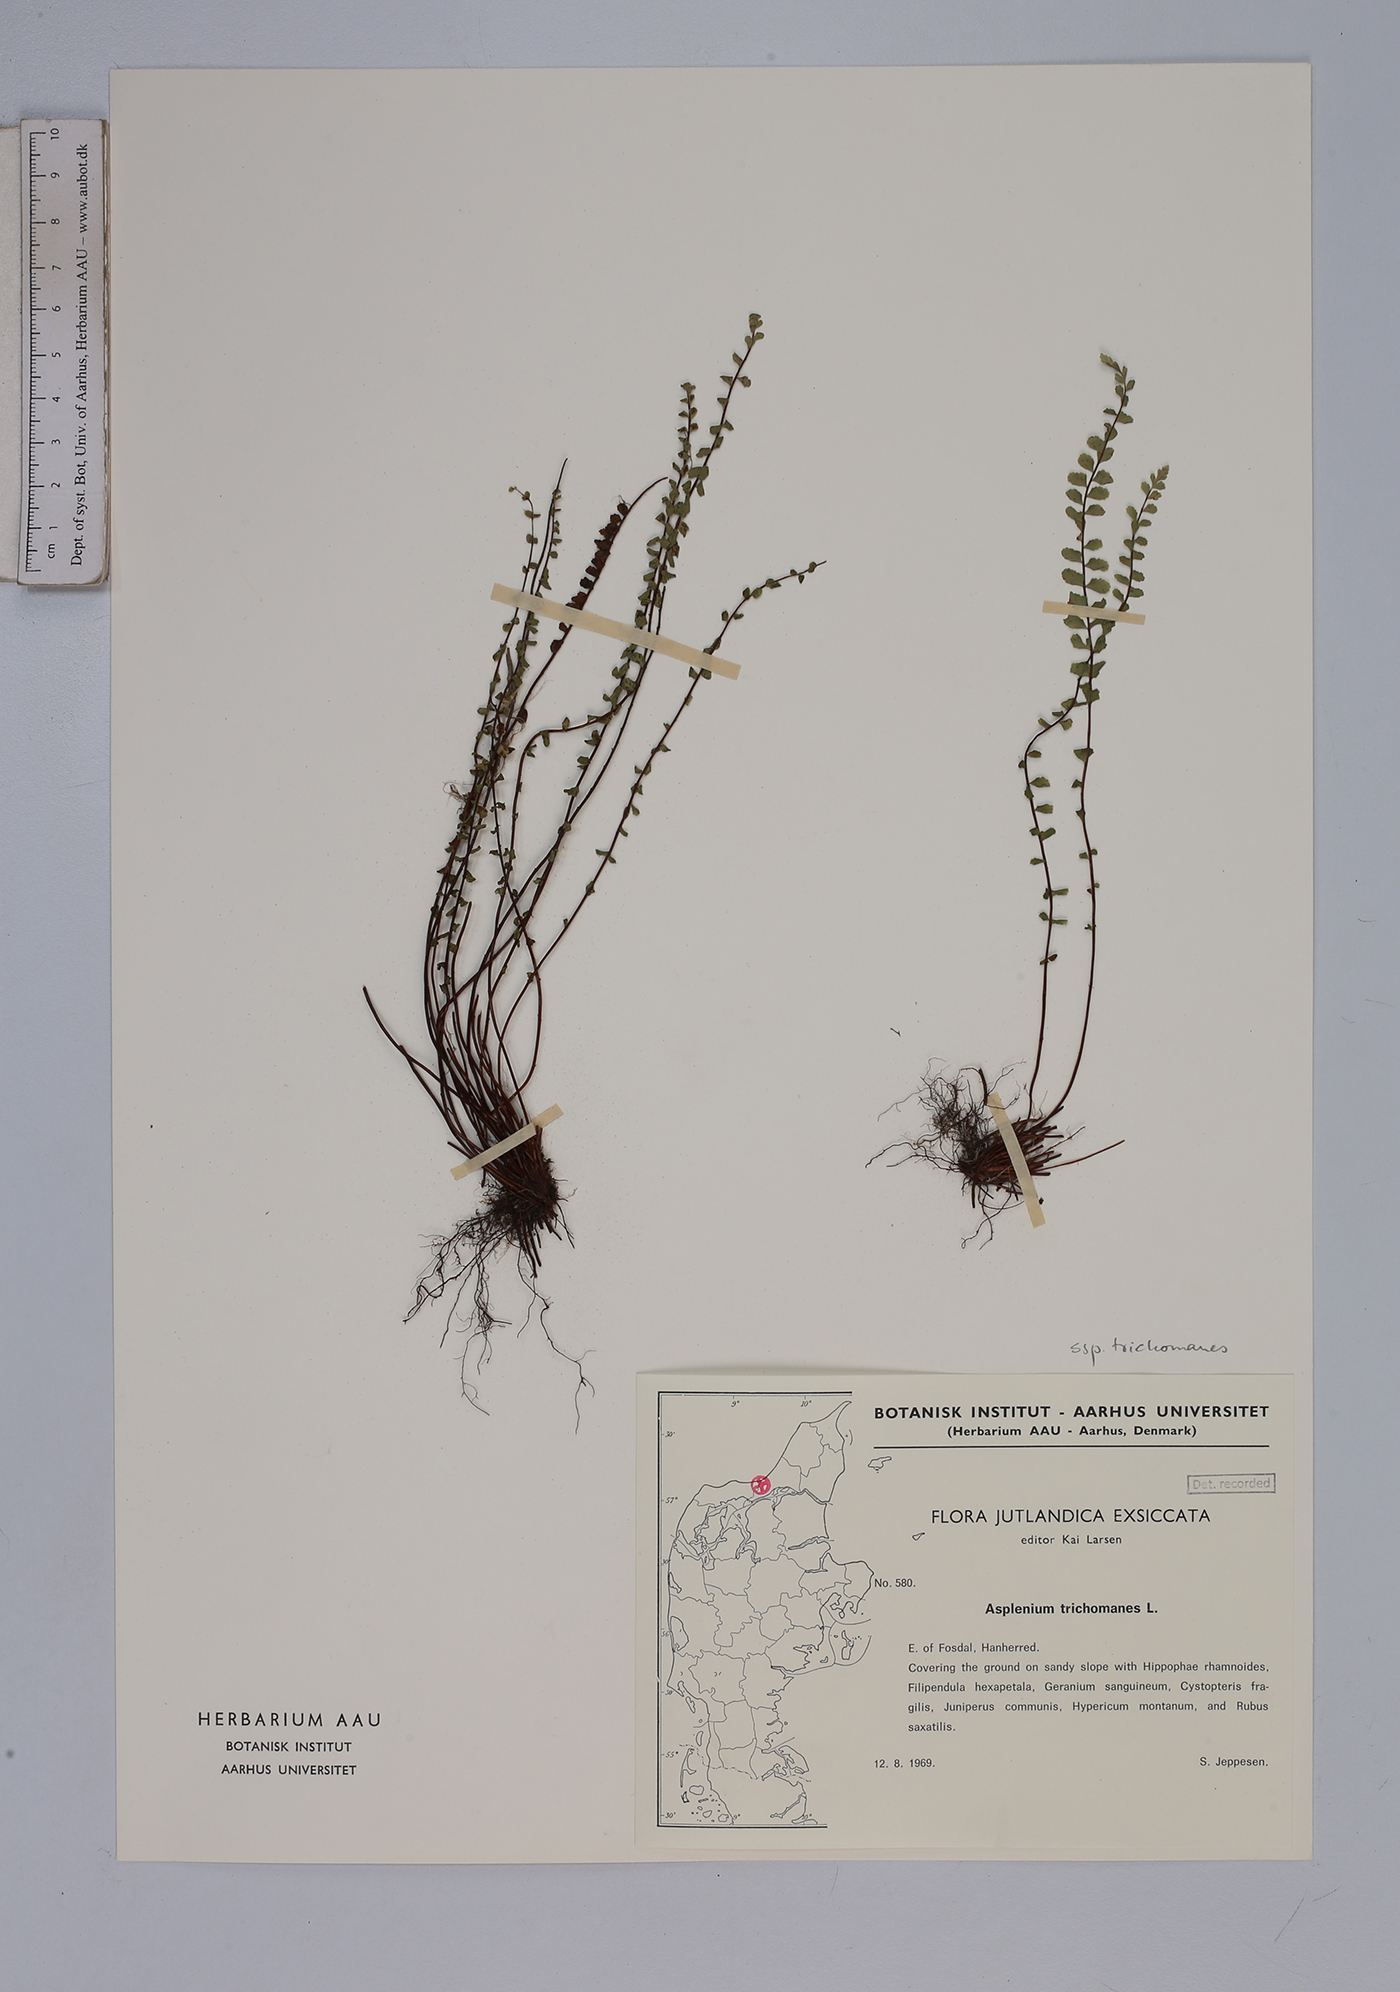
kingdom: Plantae
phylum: Tracheophyta
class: Polypodiopsida
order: Polypodiales
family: Aspleniaceae
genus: Asplenium
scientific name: Asplenium trichomanes
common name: Maidenhair spleenwort
